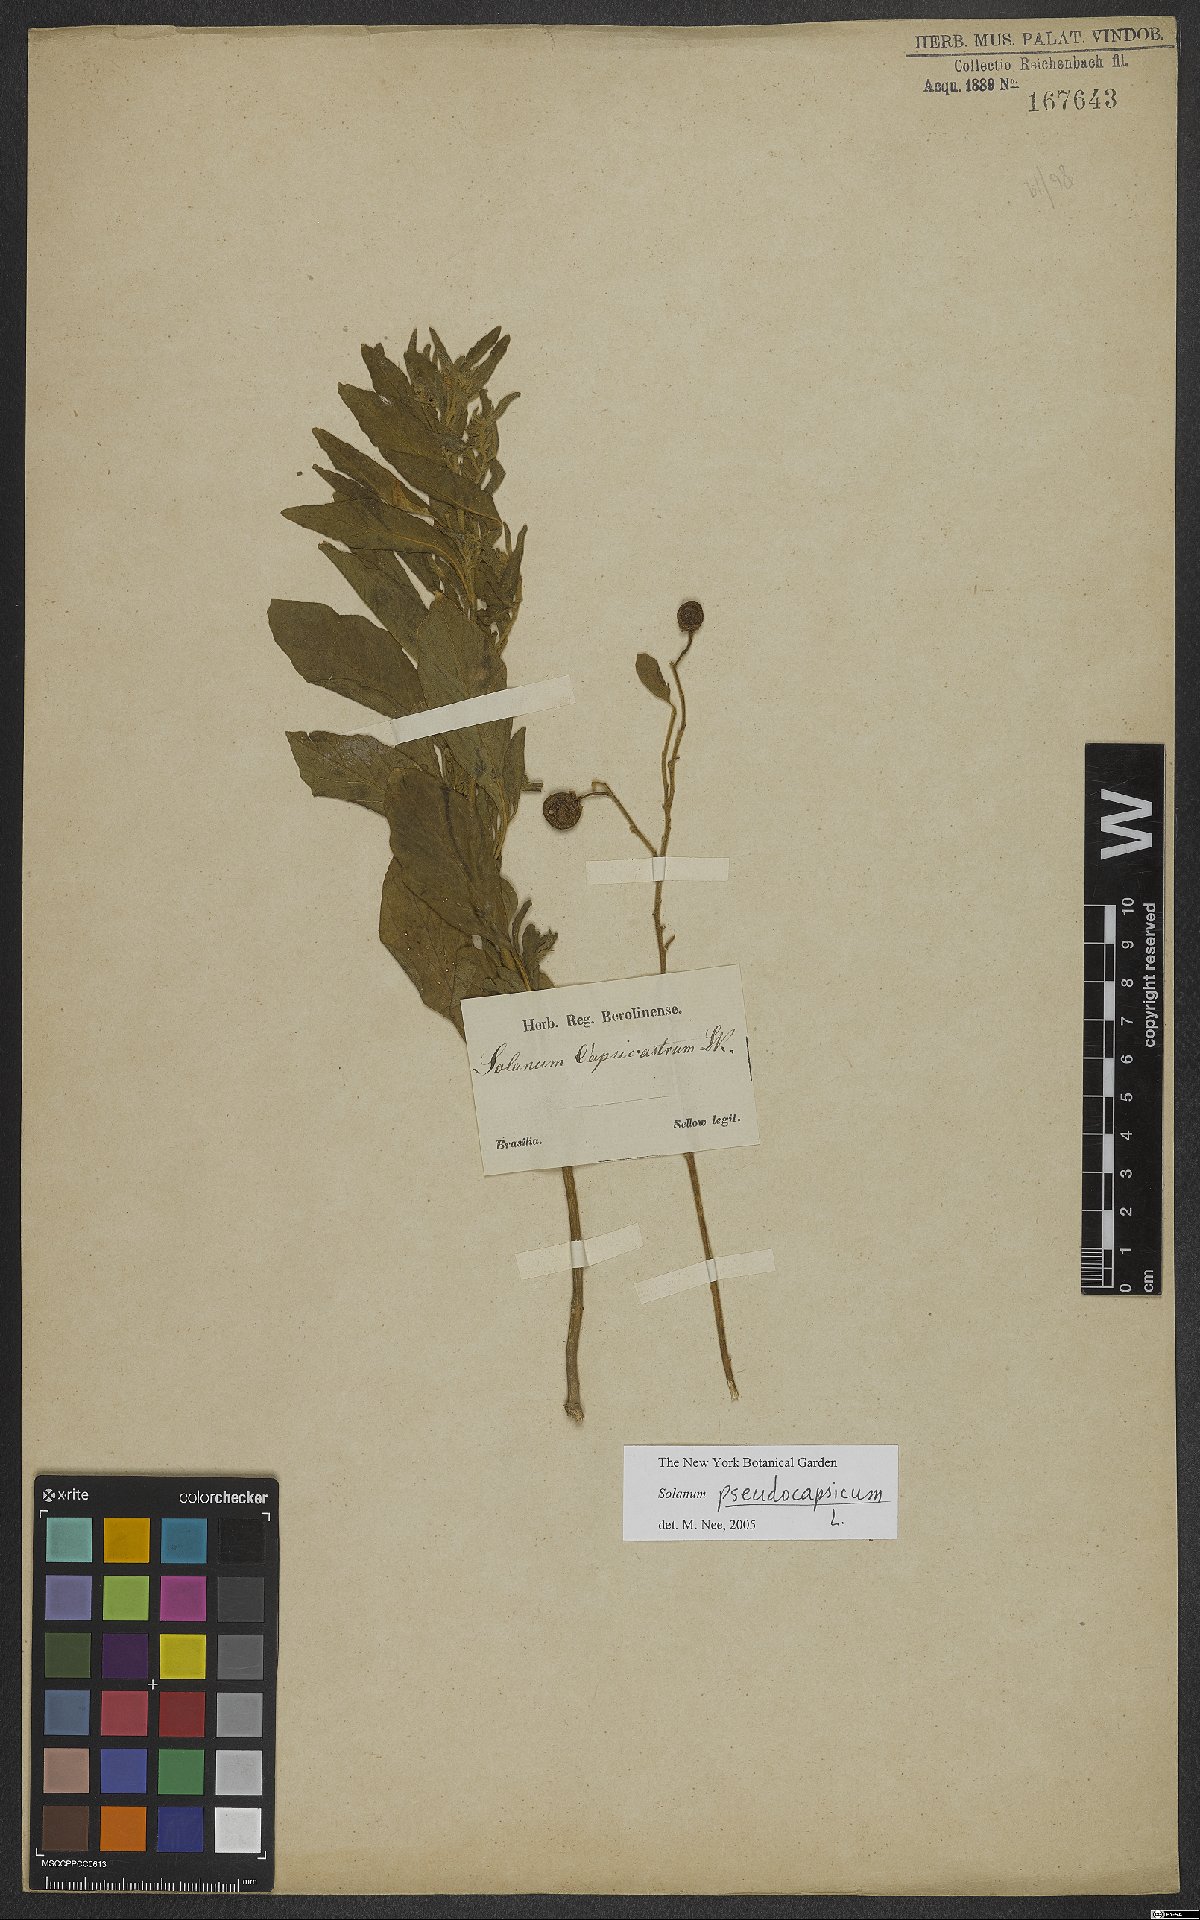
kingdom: Plantae
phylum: Tracheophyta
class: Magnoliopsida
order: Solanales
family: Solanaceae
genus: Solanum
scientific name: Solanum pseudocapsicum
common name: Jerusalem cherry
